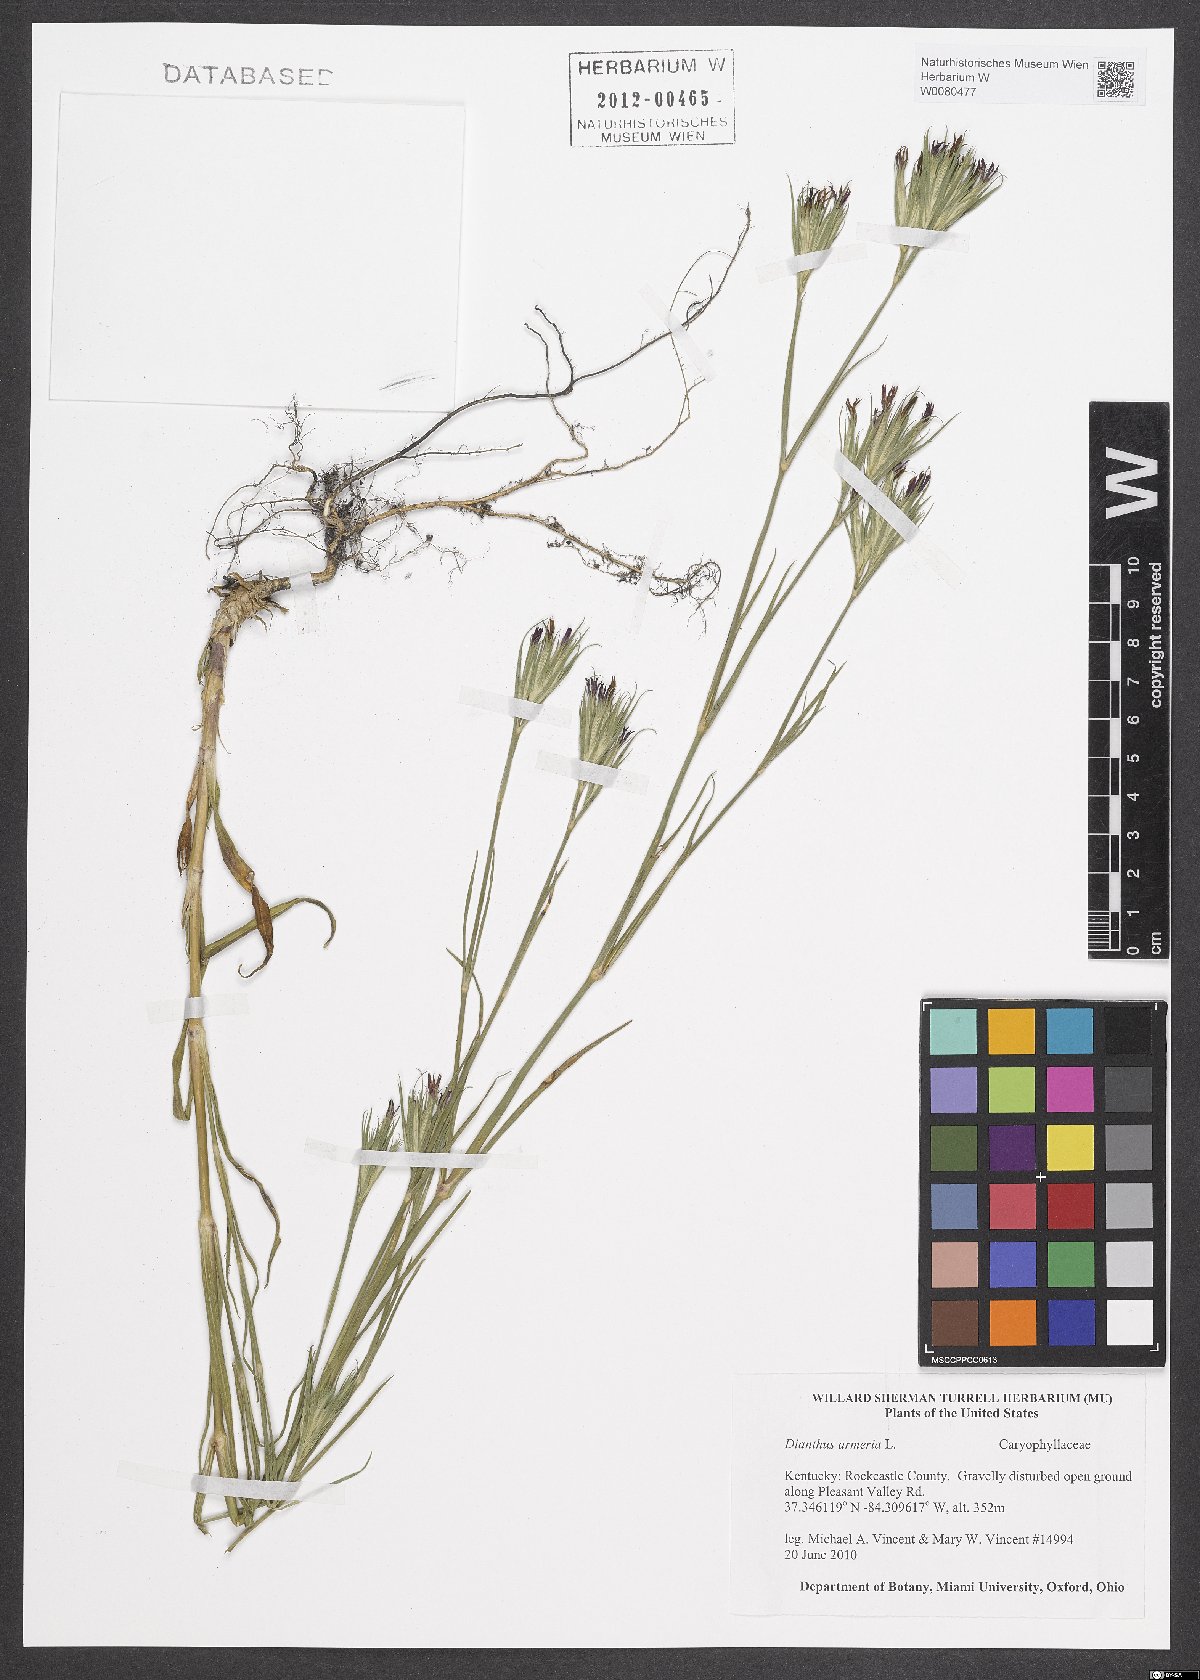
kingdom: Plantae
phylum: Tracheophyta
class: Magnoliopsida
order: Caryophyllales
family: Caryophyllaceae
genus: Dianthus
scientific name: Dianthus armeria
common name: Deptford pink
